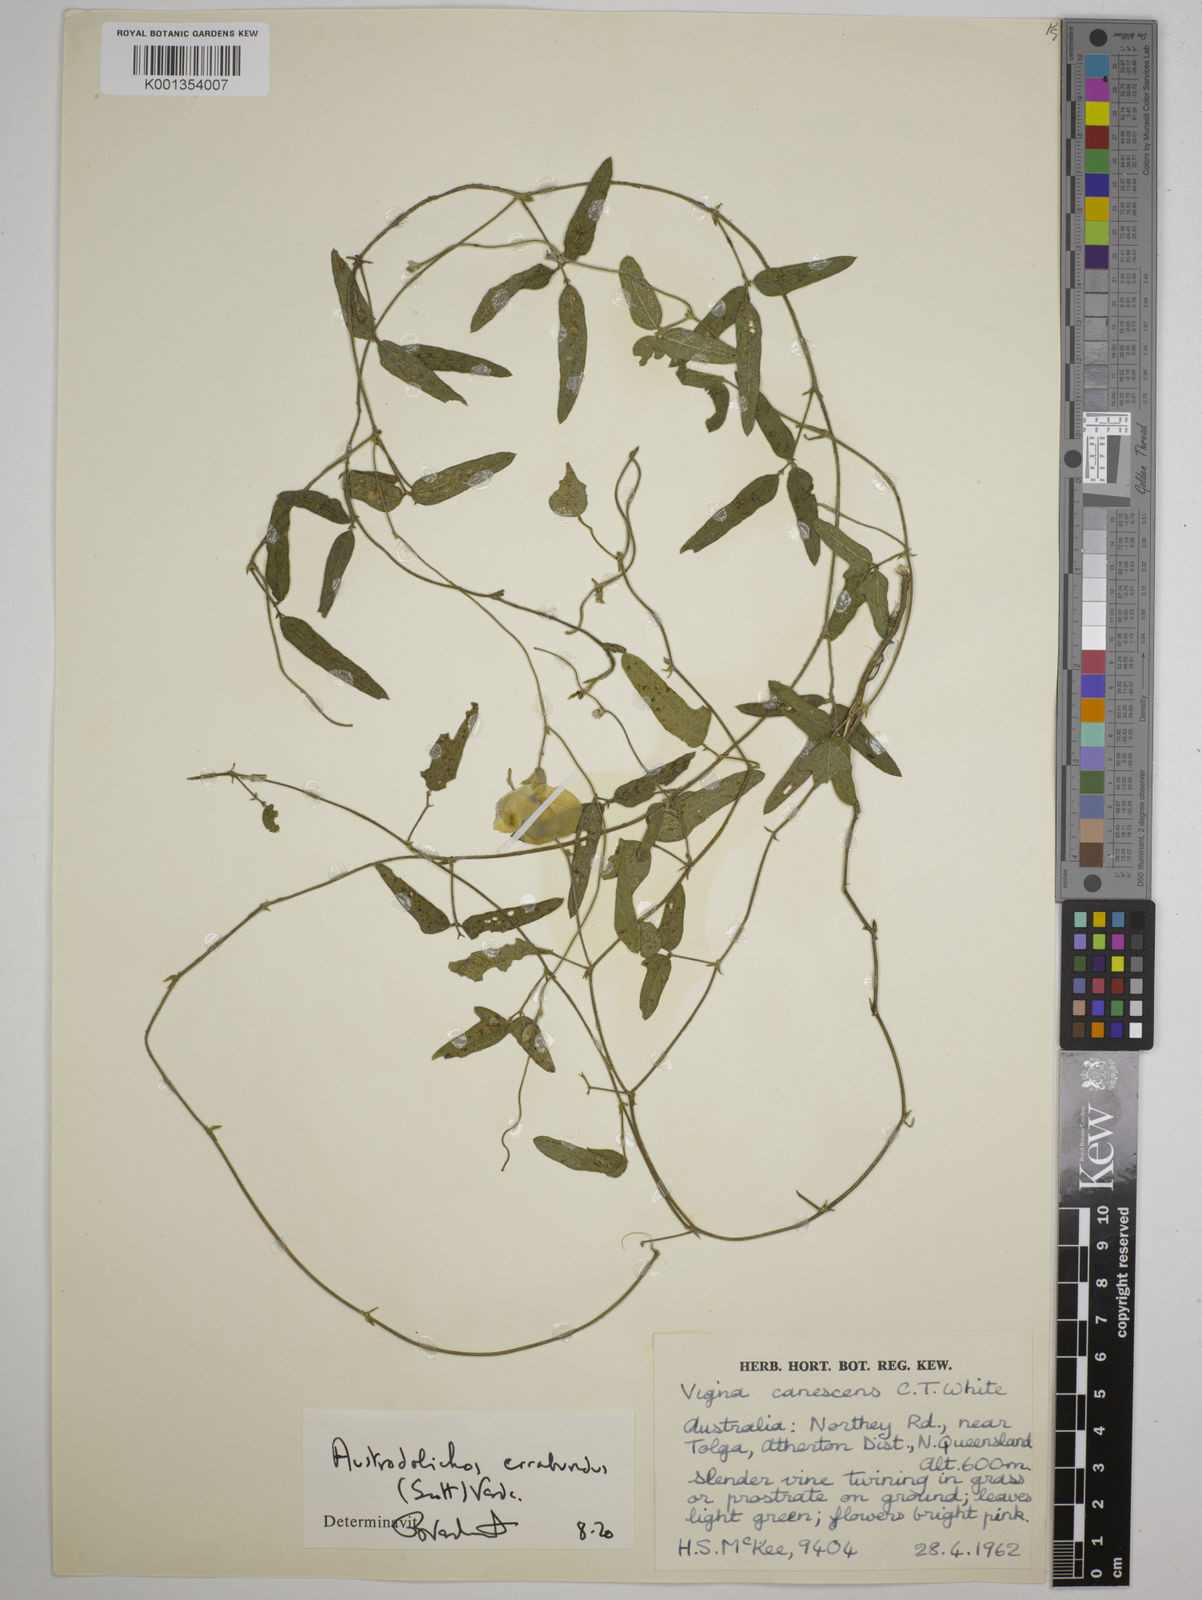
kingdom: Plantae
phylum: Tracheophyta
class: Magnoliopsida
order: Fabales
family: Fabaceae
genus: Austrodolichos
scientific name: Austrodolichos errabundus
